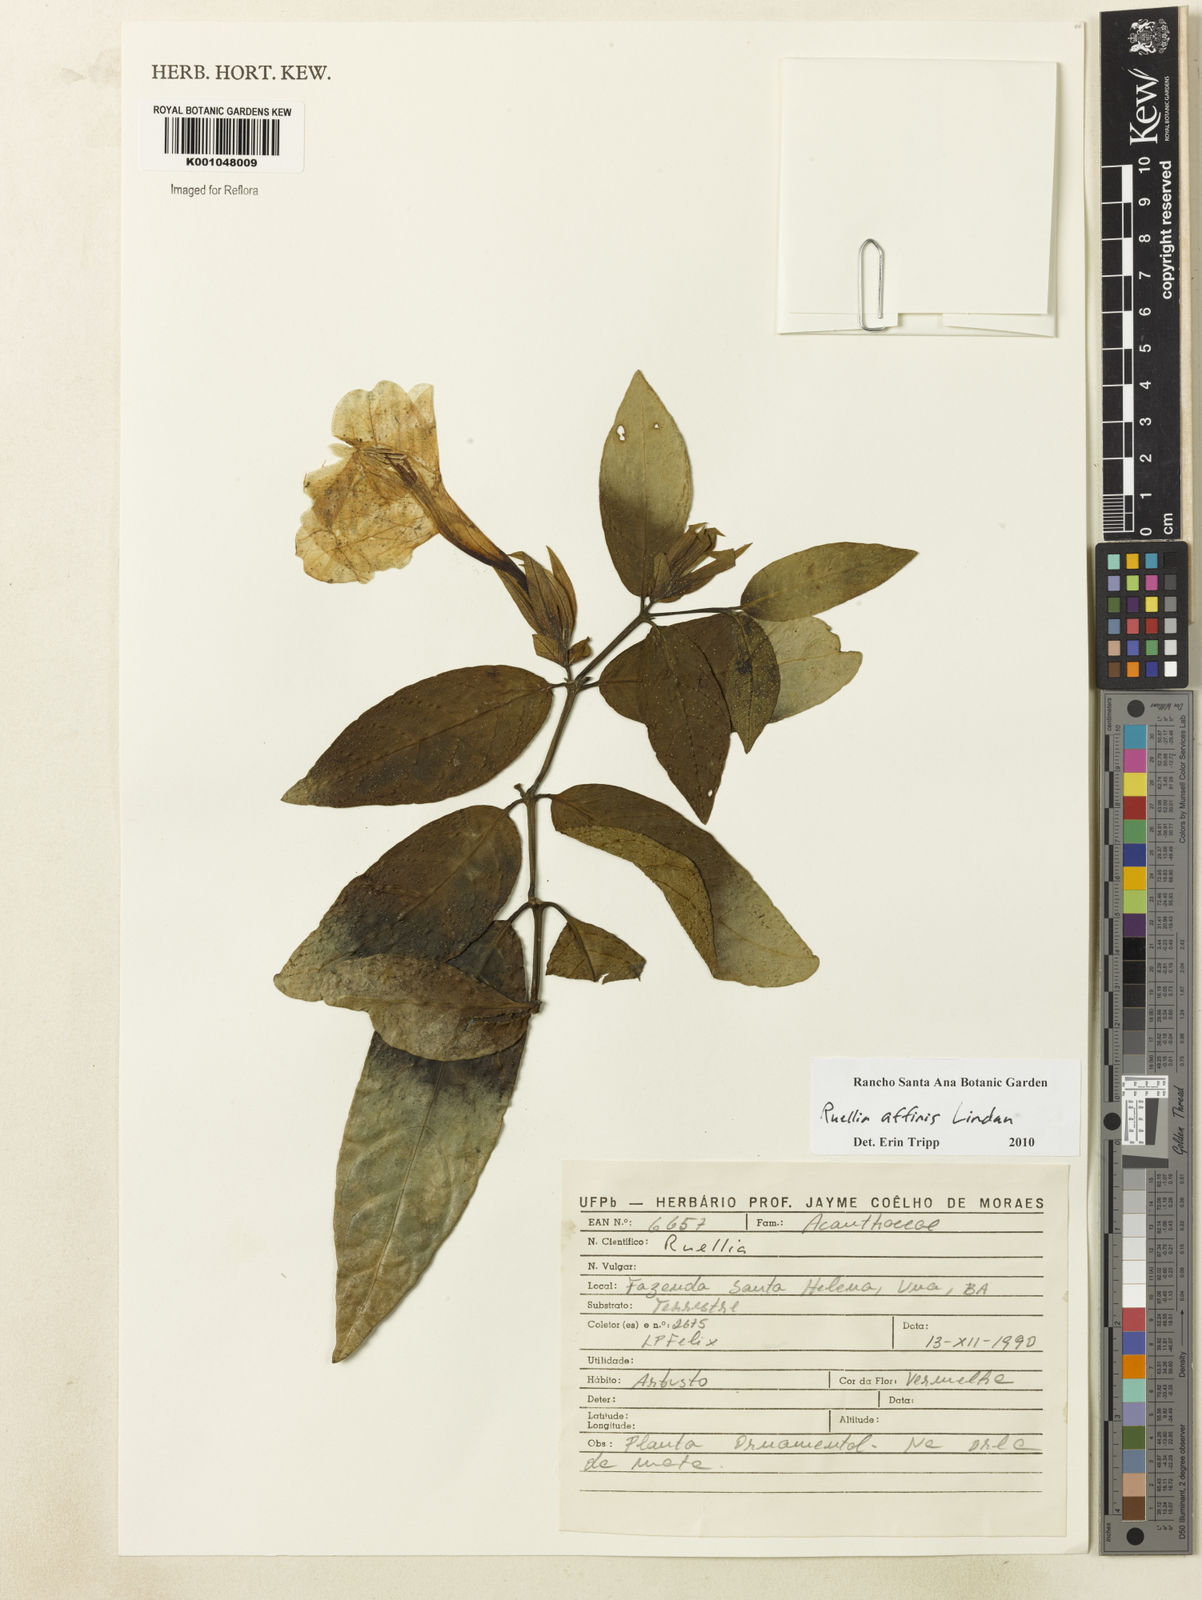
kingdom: Plantae
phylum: Tracheophyta
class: Magnoliopsida
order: Lamiales
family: Acanthaceae
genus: Ruellia
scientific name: Ruellia adenocalyx
